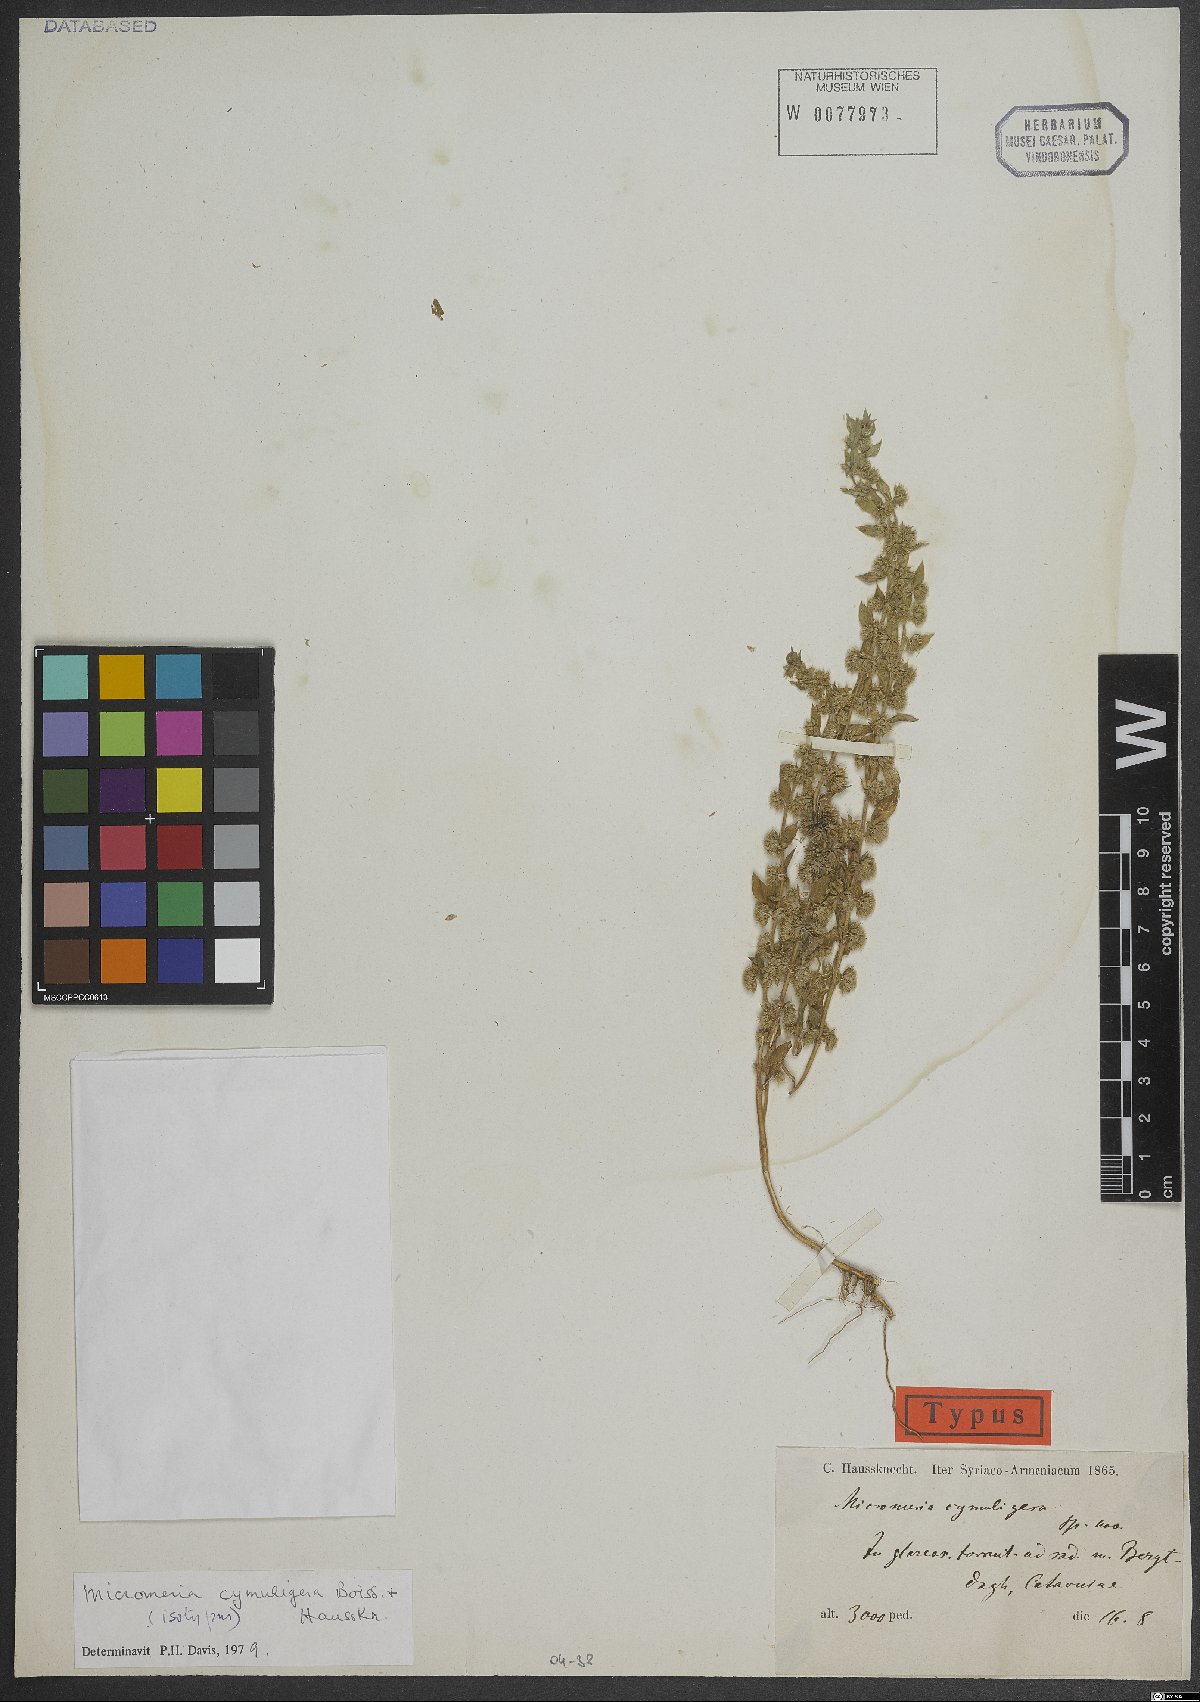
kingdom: Plantae
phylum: Tracheophyta
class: Magnoliopsida
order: Lamiales
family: Lamiaceae
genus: Micromeria
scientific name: Micromeria cymuligera
